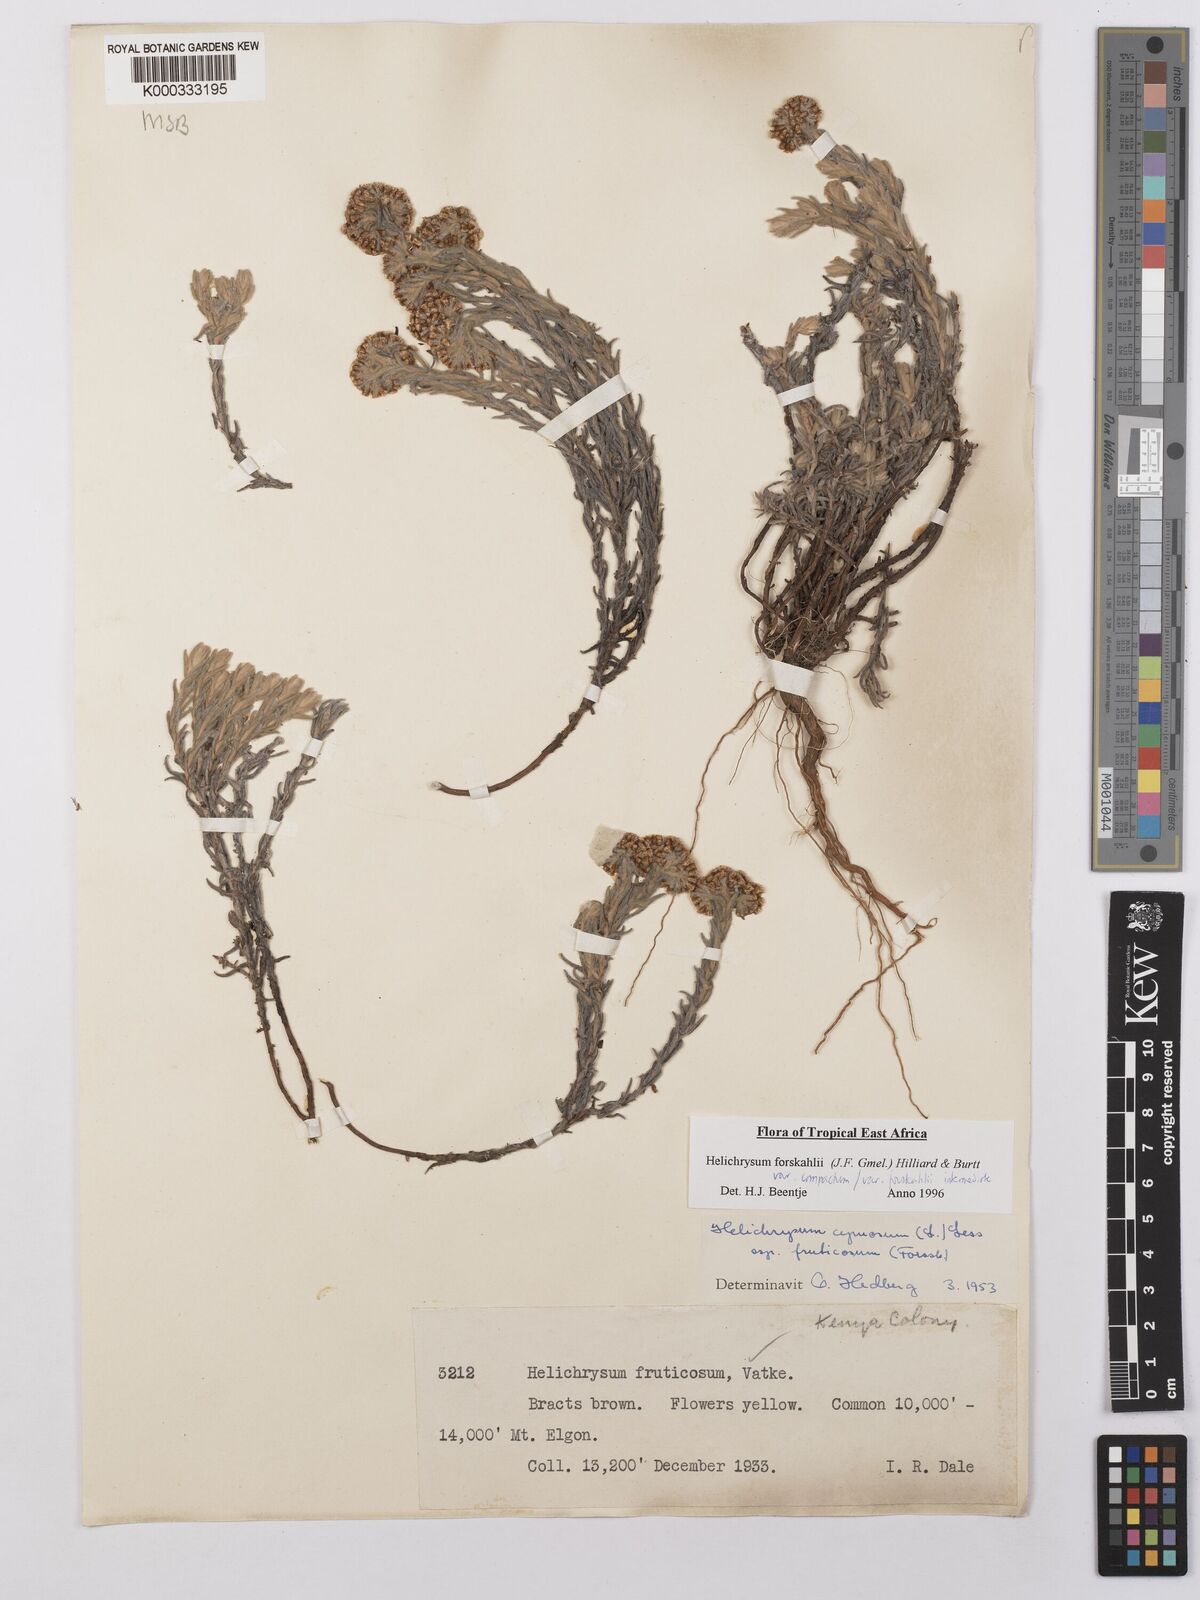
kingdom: Plantae
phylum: Tracheophyta
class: Magnoliopsida
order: Asterales
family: Asteraceae
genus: Helichrysum
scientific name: Helichrysum forskahlii
